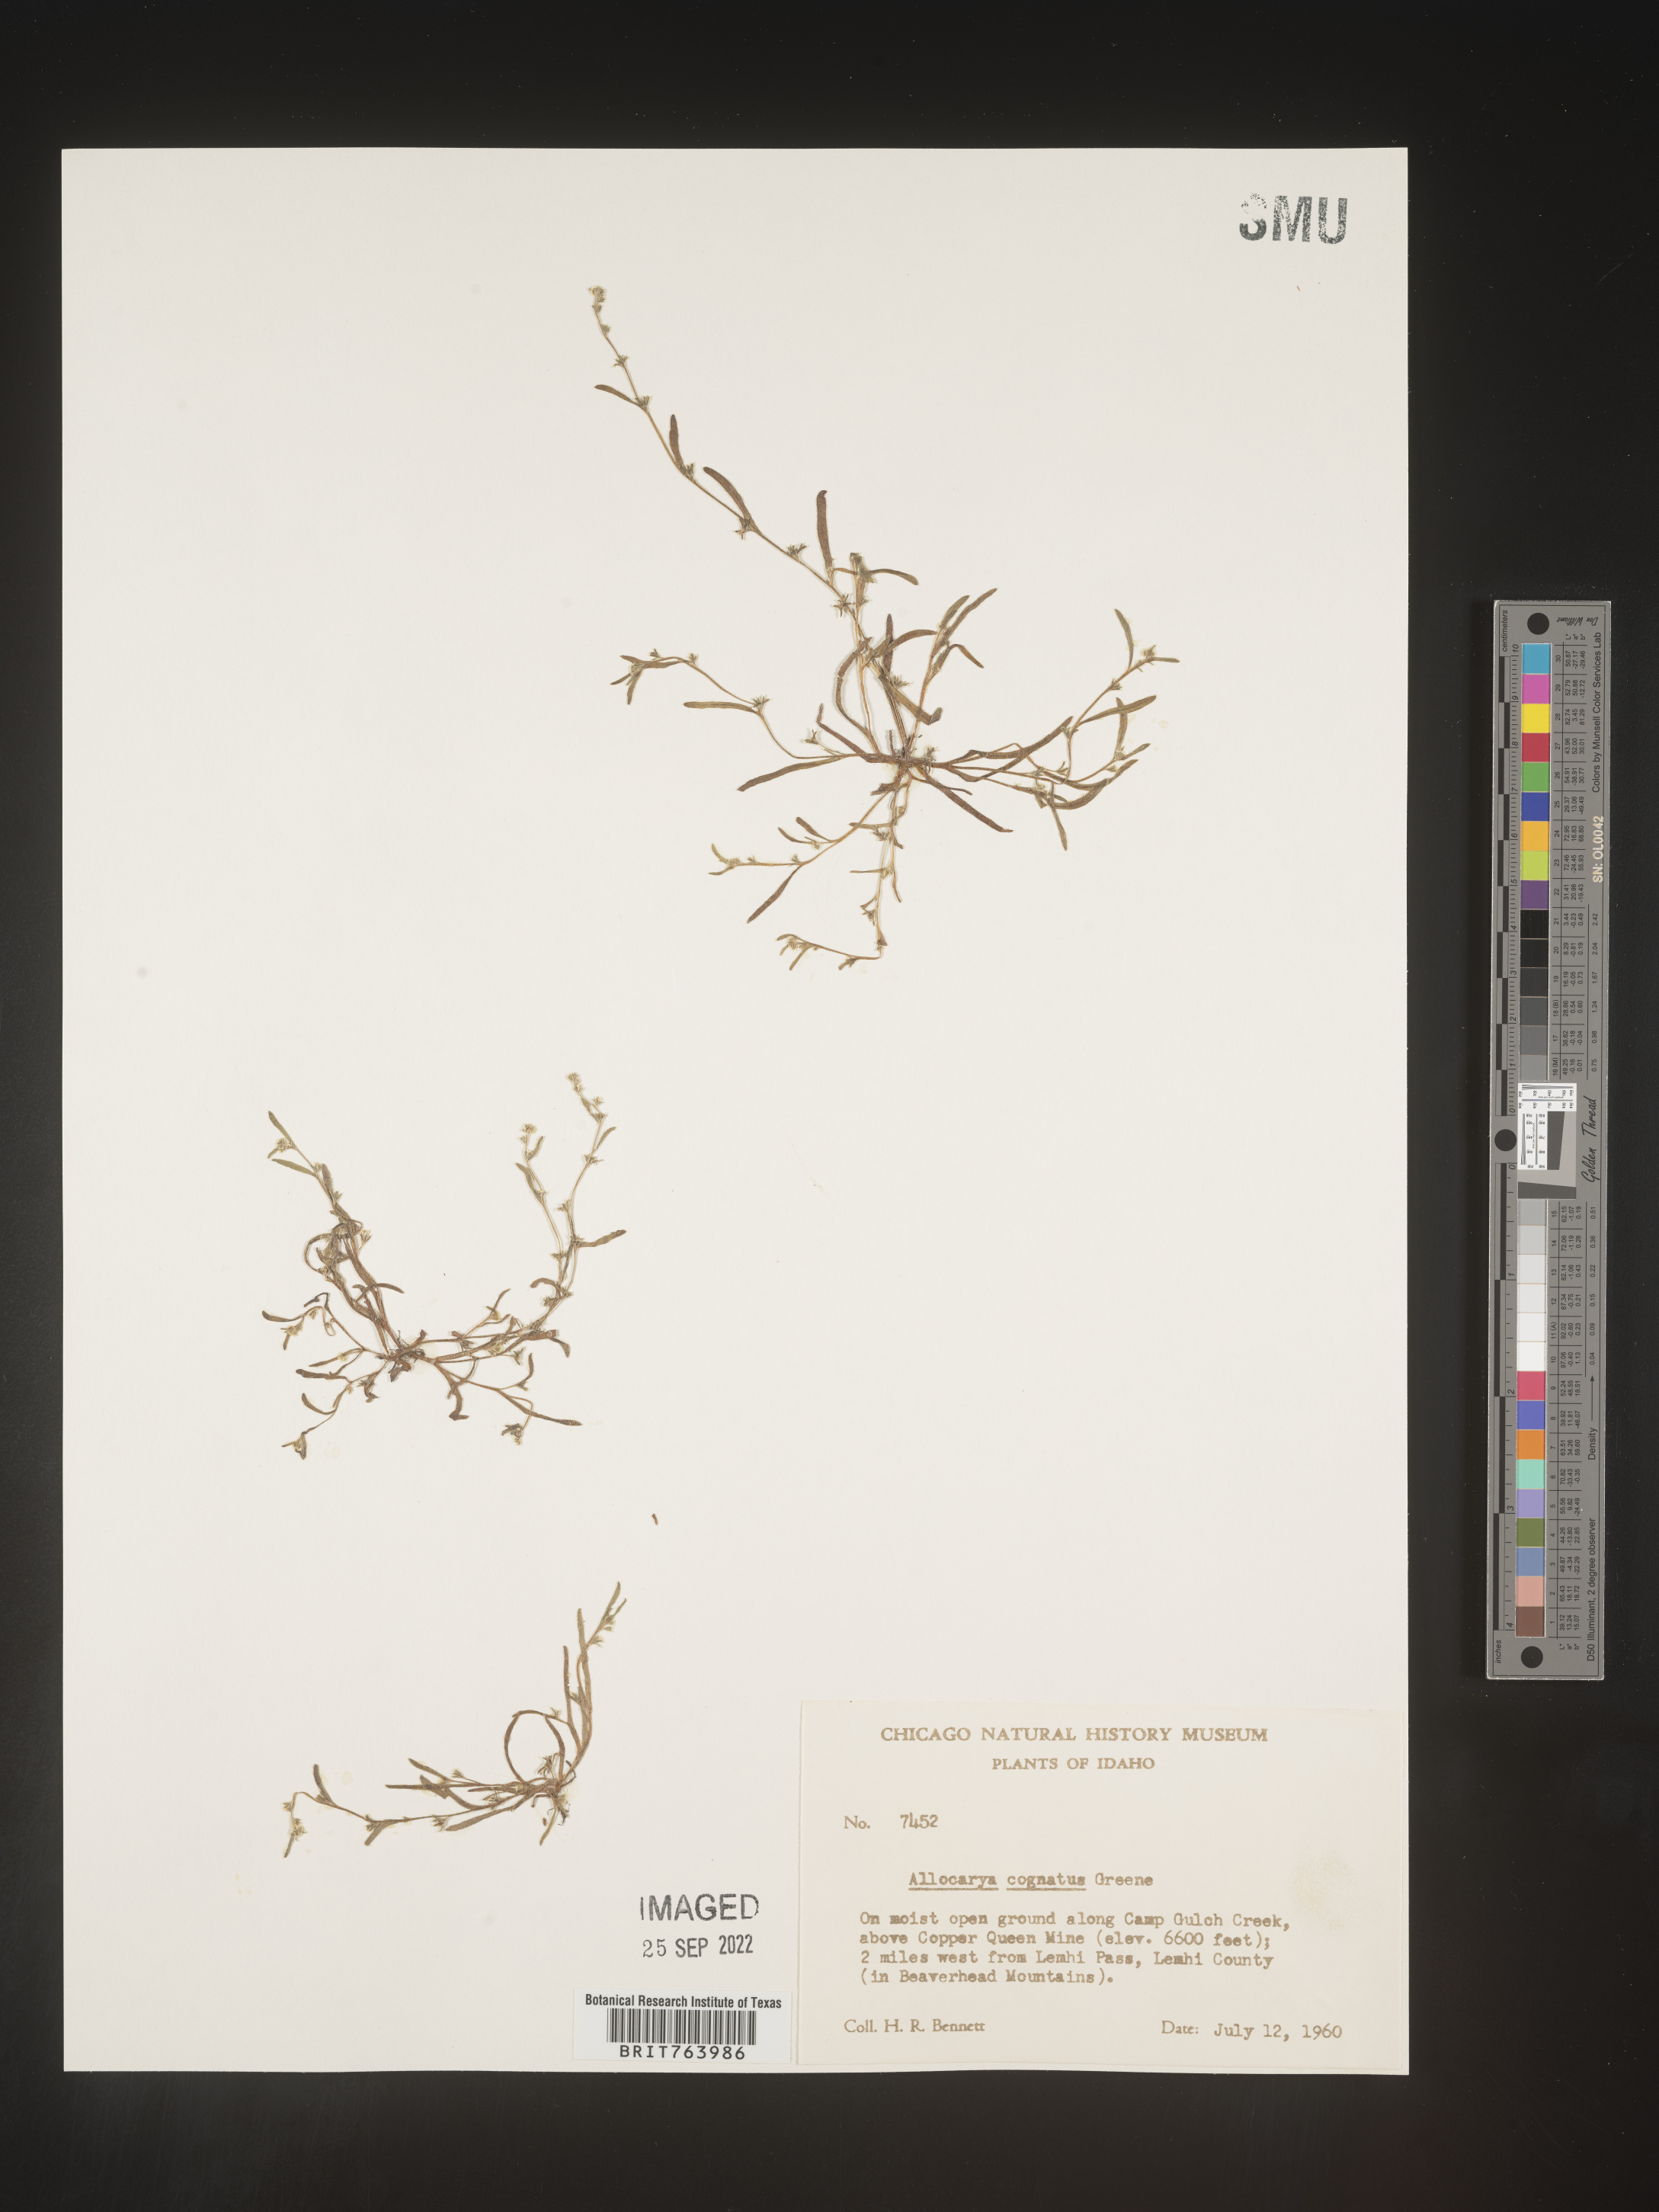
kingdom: Plantae
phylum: Tracheophyta
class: Magnoliopsida
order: Boraginales
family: Boraginaceae
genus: Plagiobothrys
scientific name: Plagiobothrys
